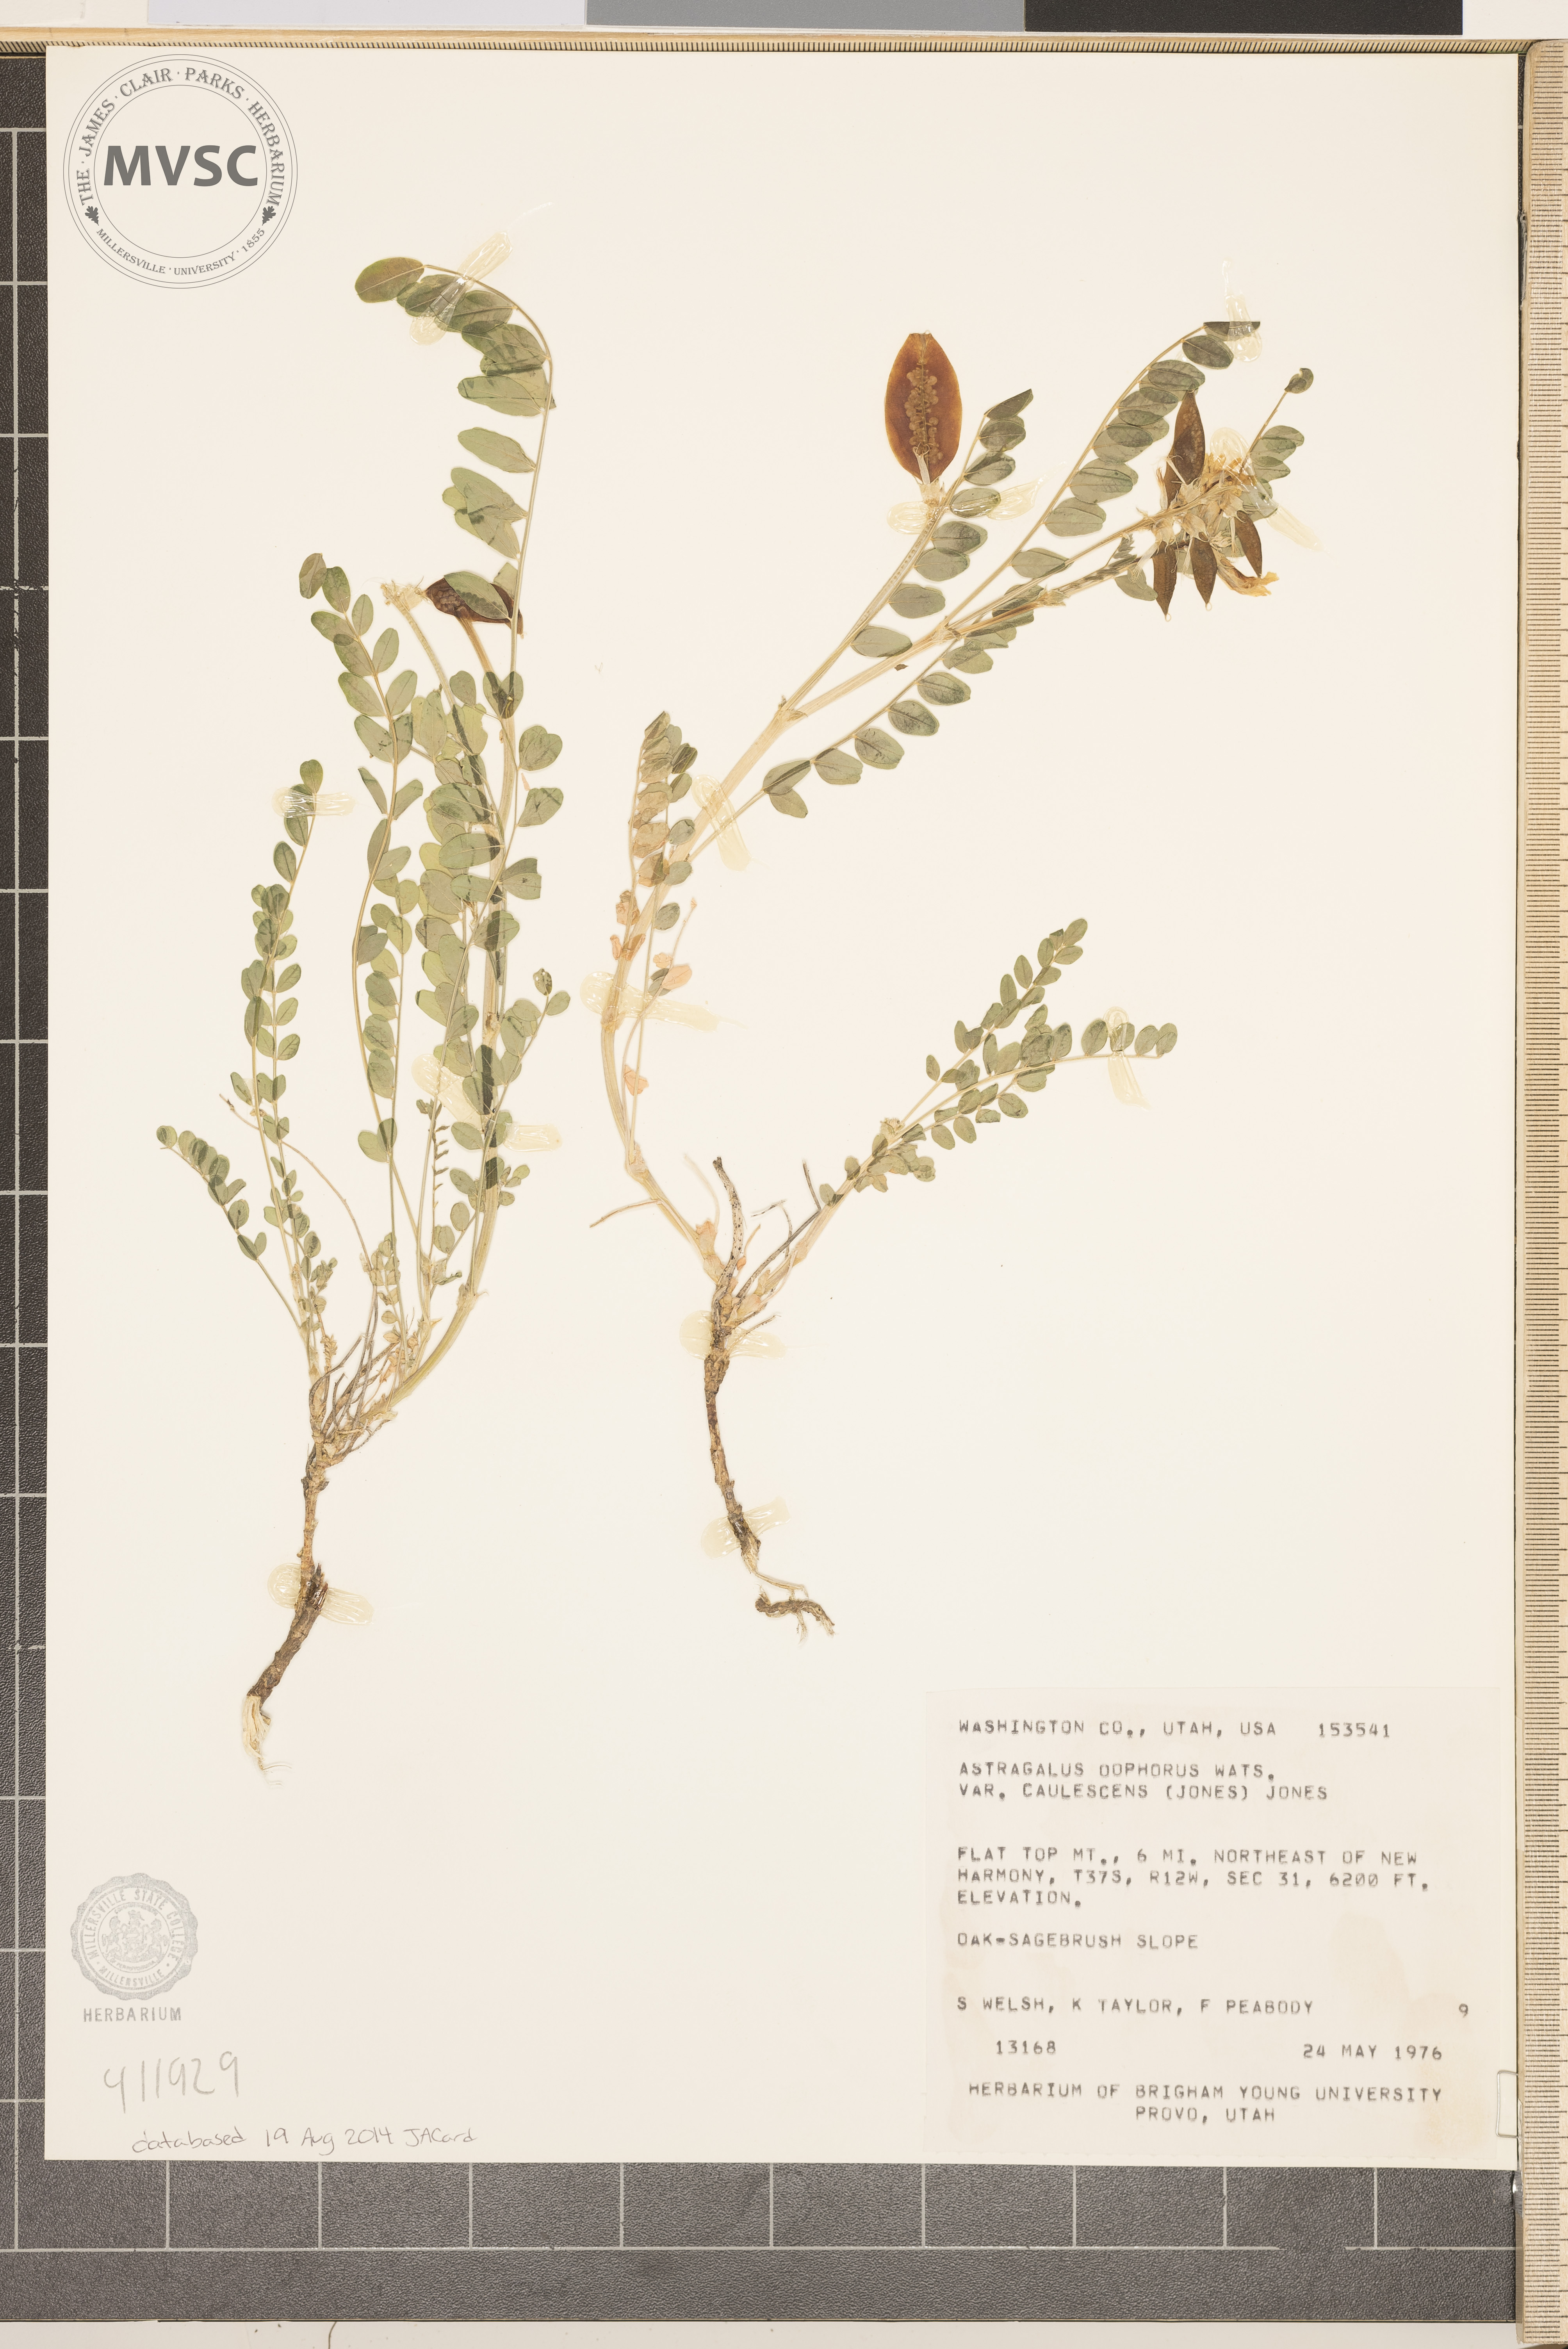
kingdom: Plantae
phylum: Tracheophyta
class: Magnoliopsida
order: Fabales
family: Fabaceae
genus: Astragalus
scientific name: Astragalus oophorus
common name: Egg milkvetch
